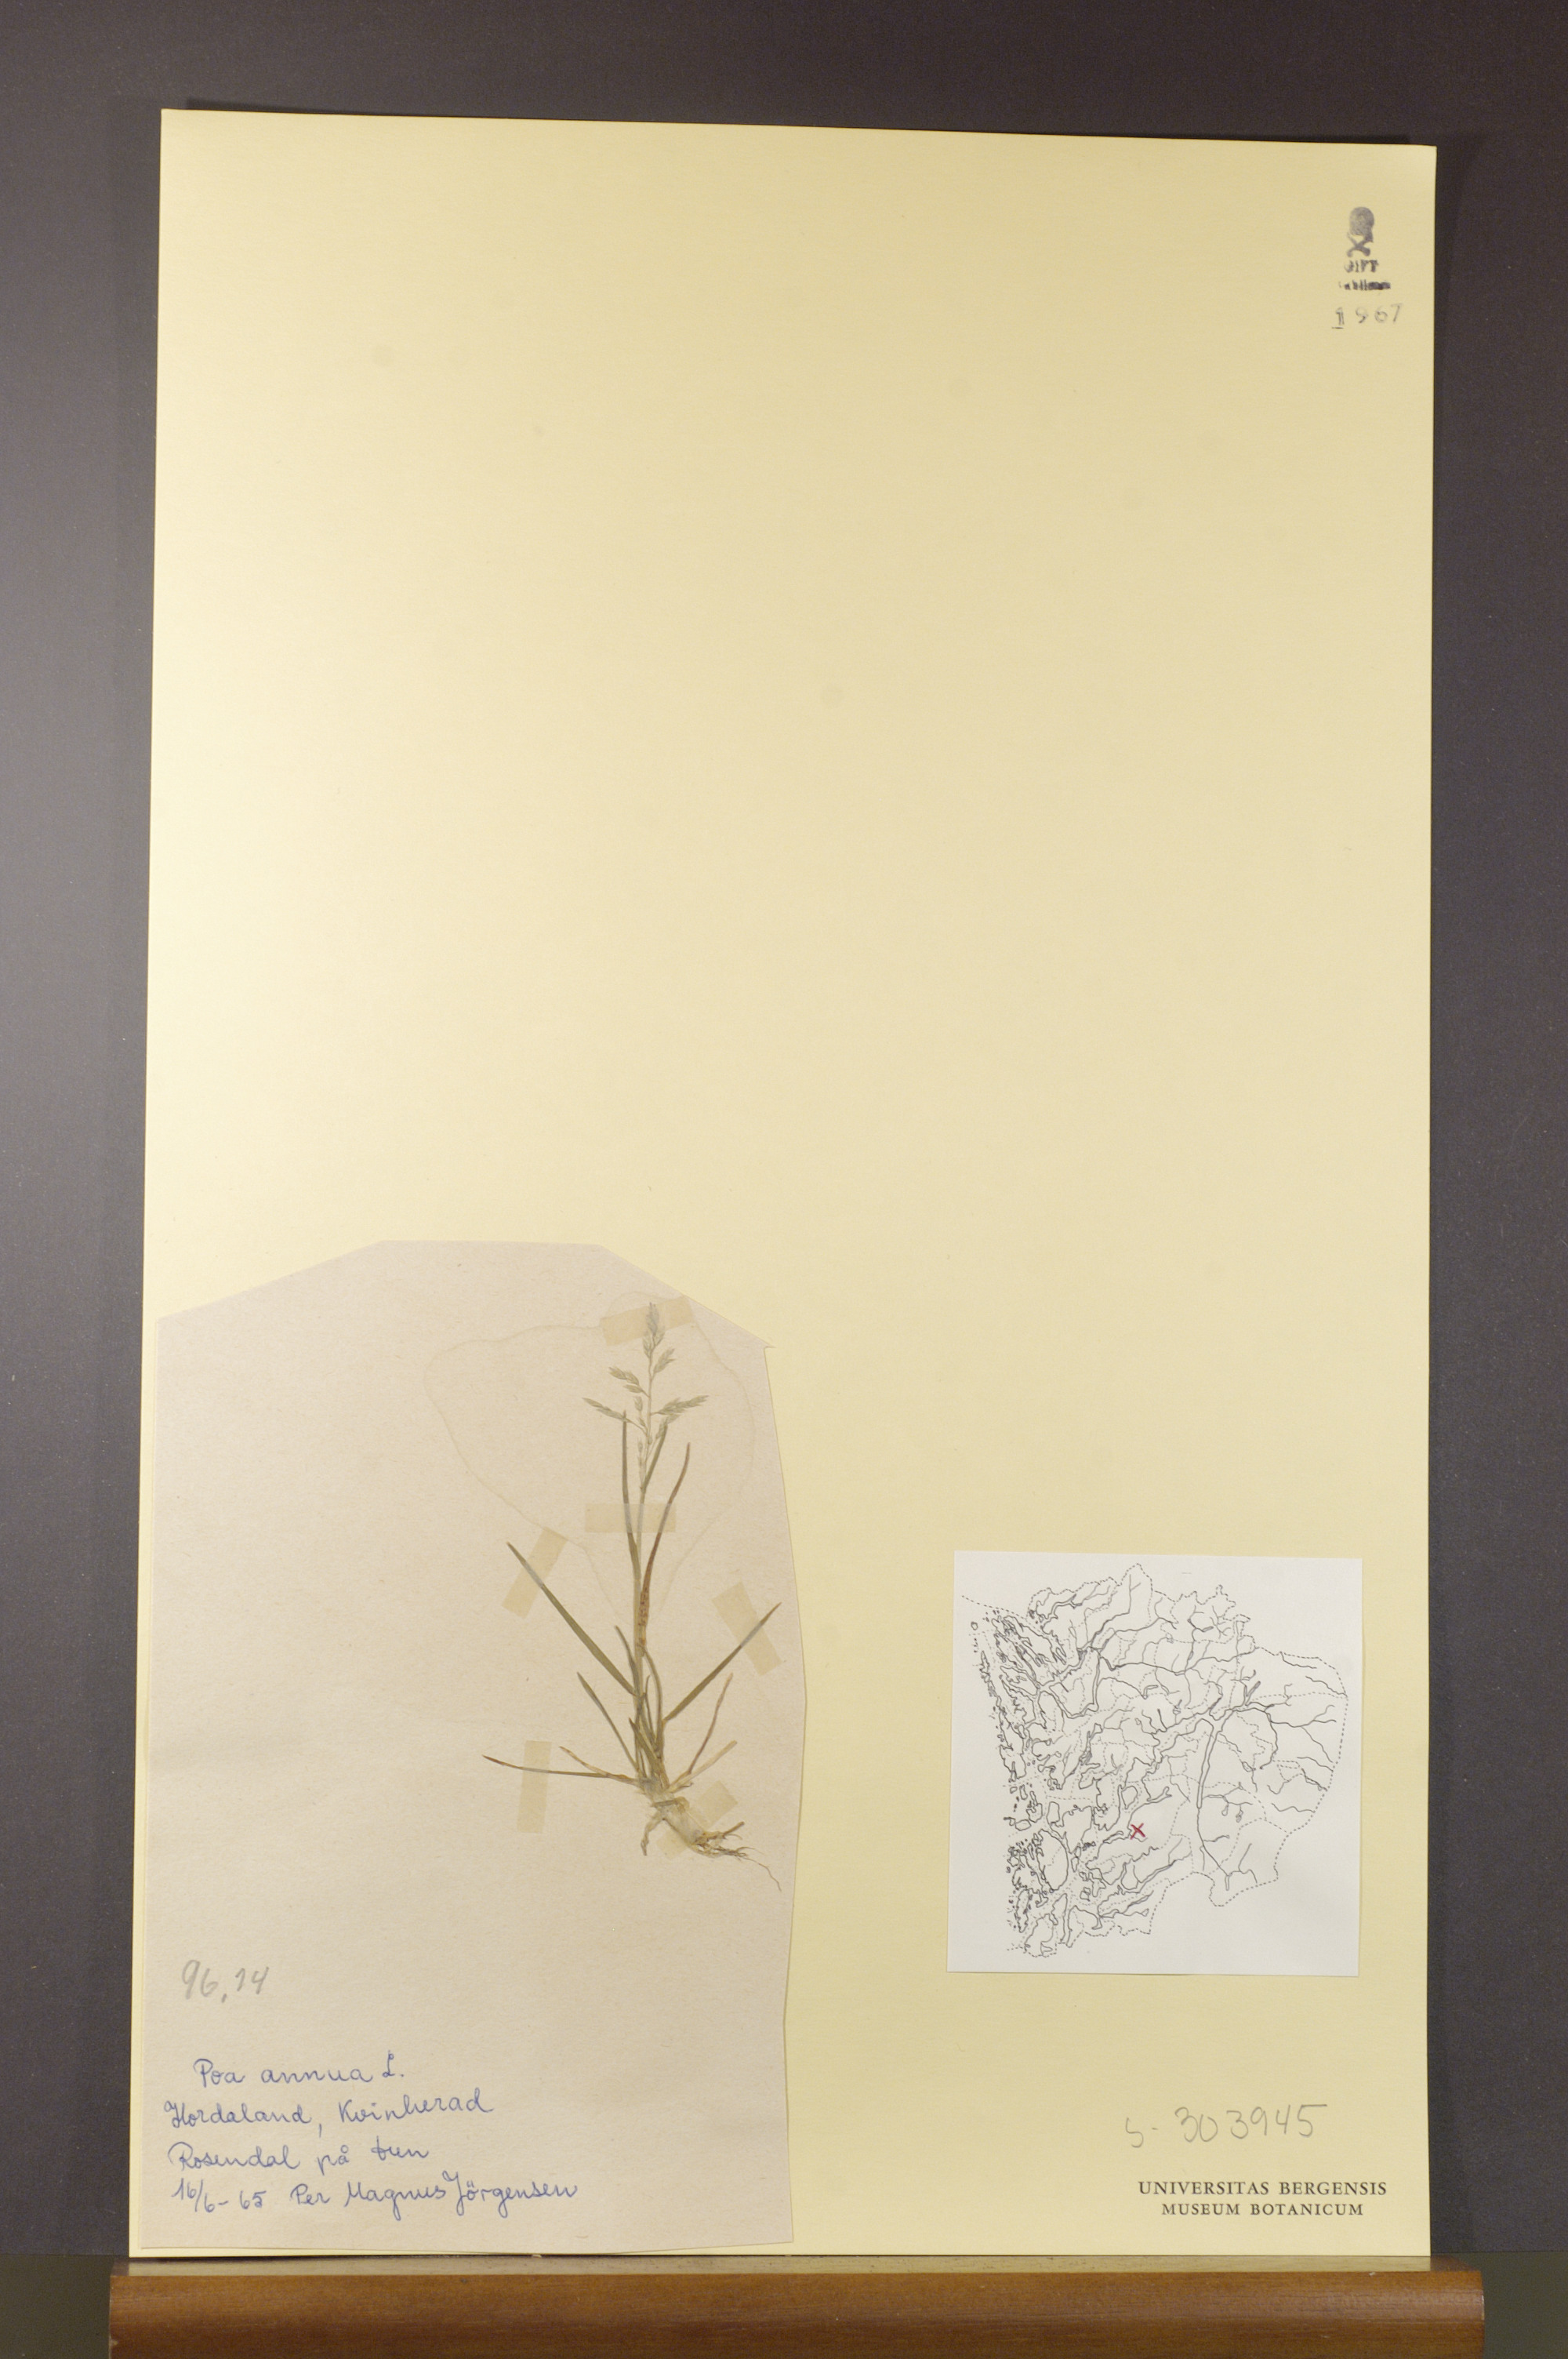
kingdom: Plantae
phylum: Tracheophyta
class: Liliopsida
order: Poales
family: Poaceae
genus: Poa
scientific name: Poa annua
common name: Annual bluegrass
